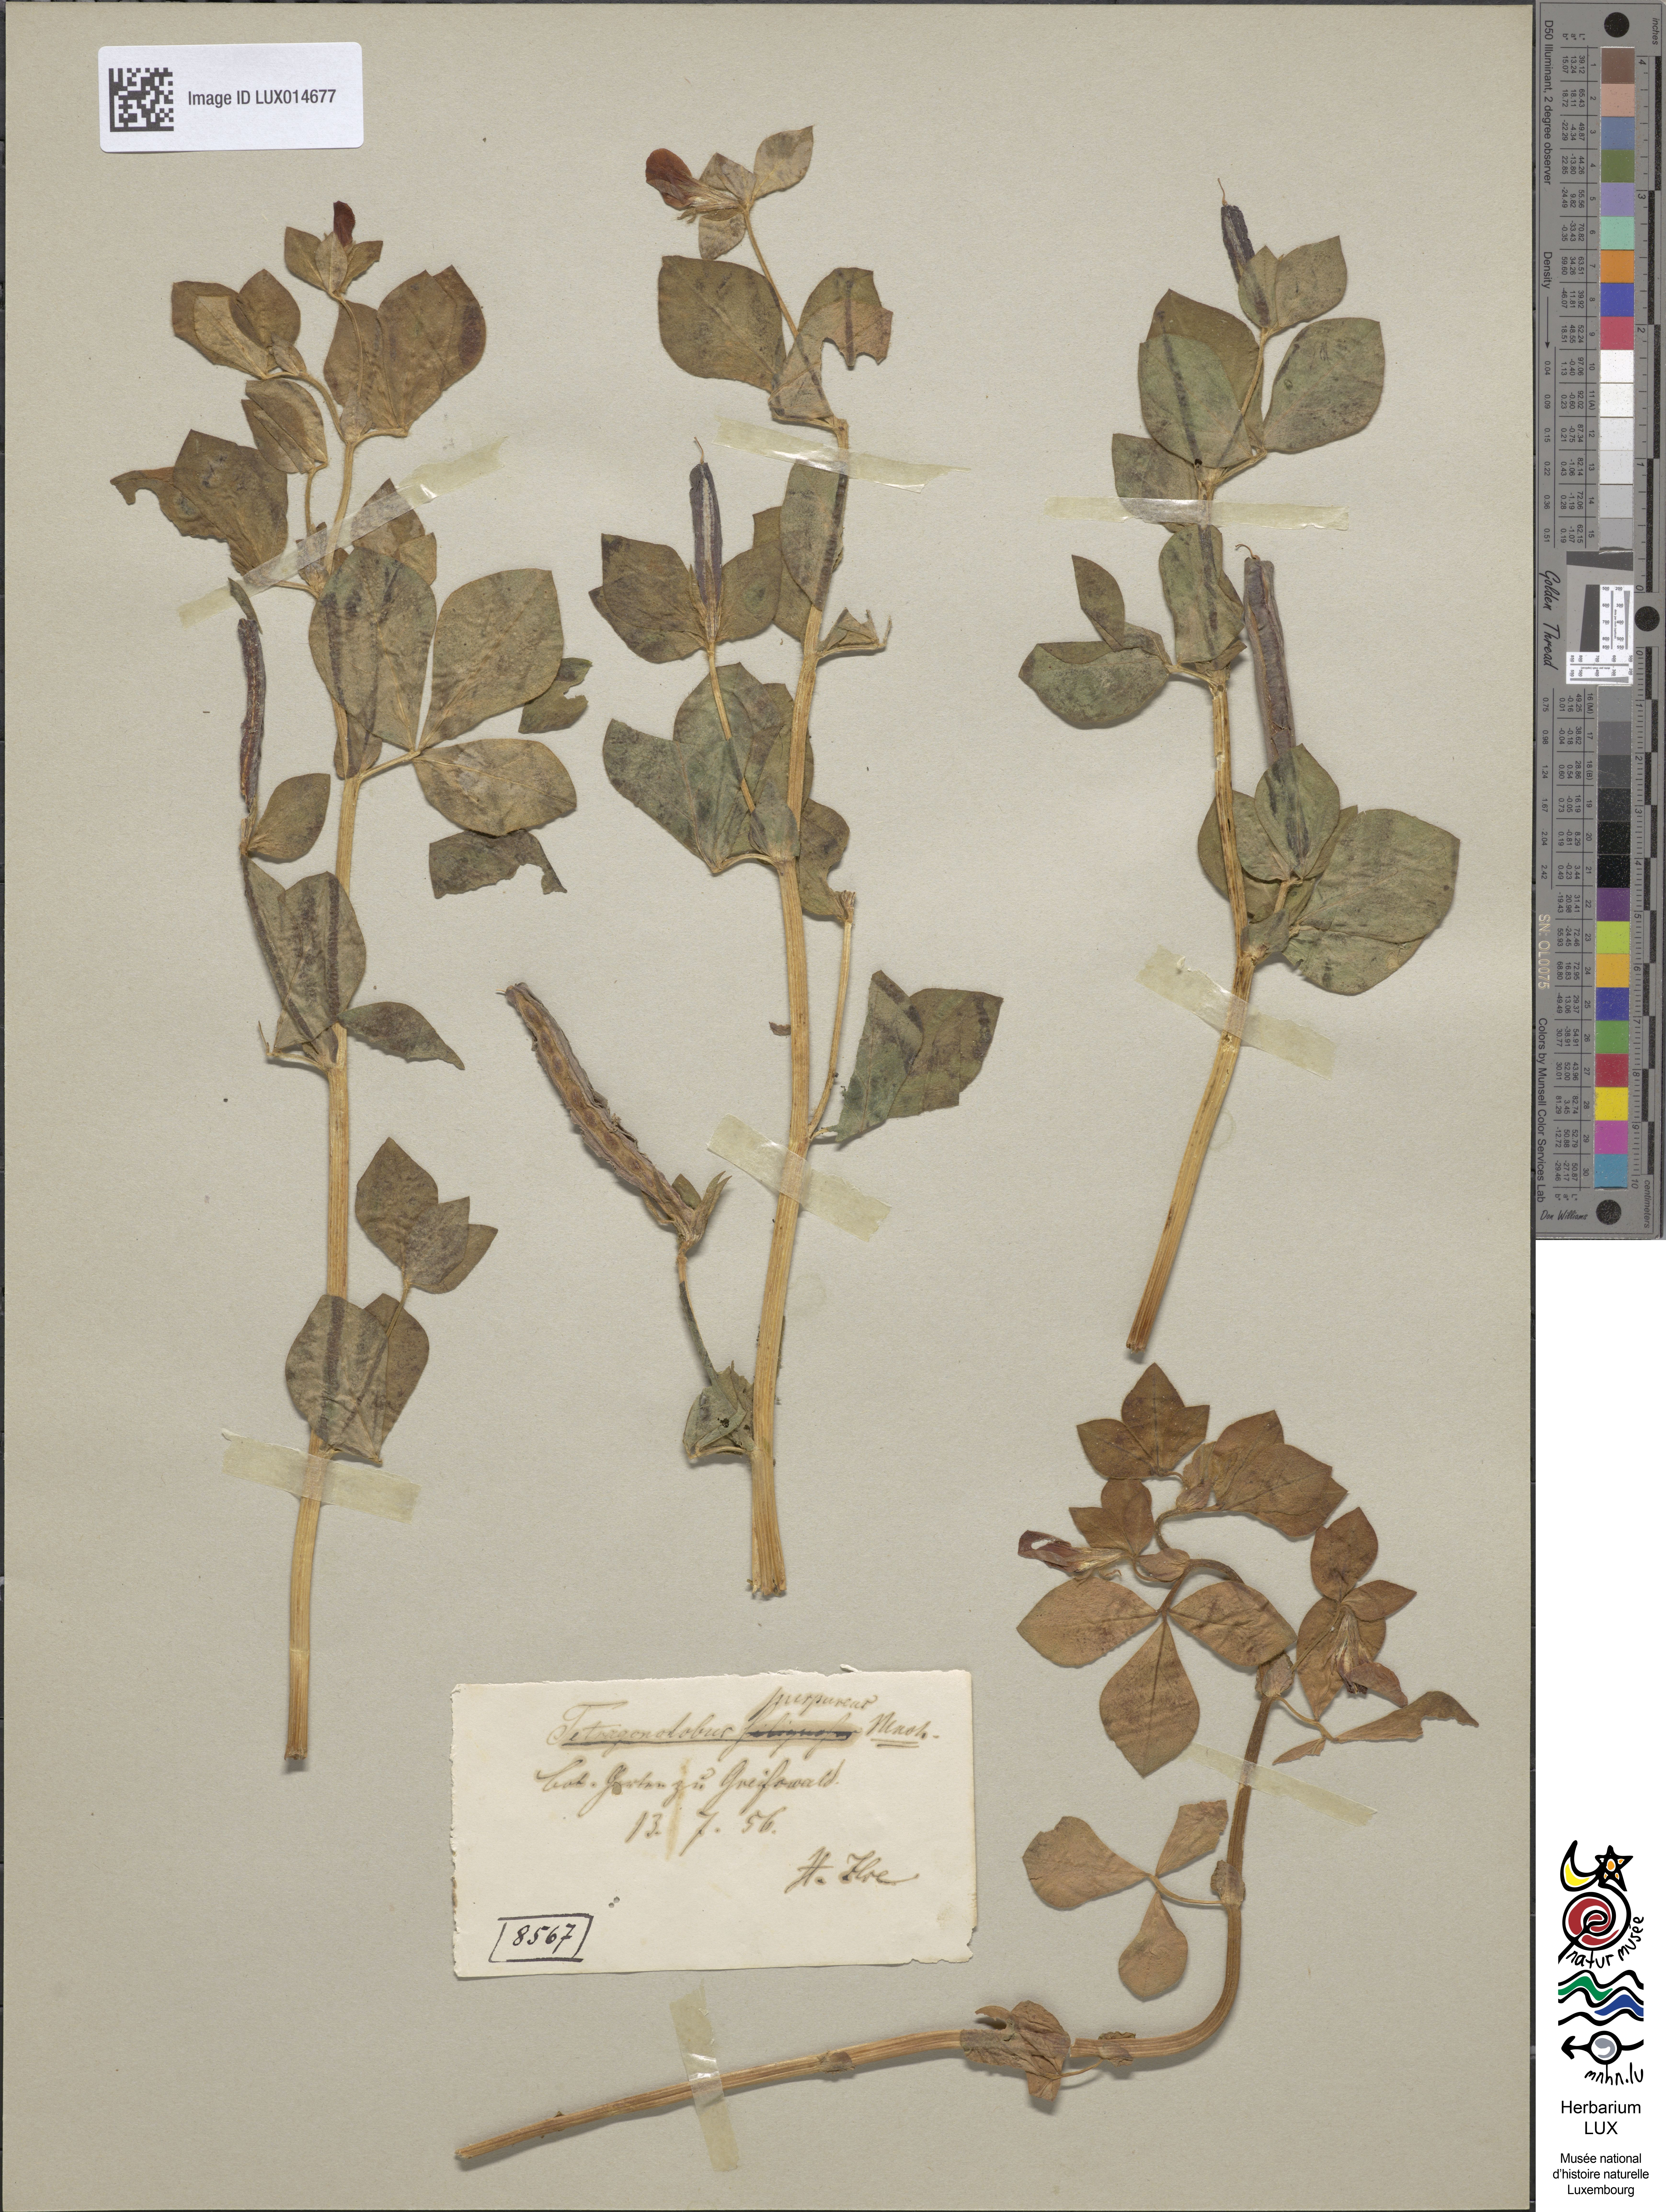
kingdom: Plantae
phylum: Tracheophyta
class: Magnoliopsida
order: Fabales
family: Fabaceae
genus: Lotus
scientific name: Lotus tetragonolobus
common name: Asparagus-pea
